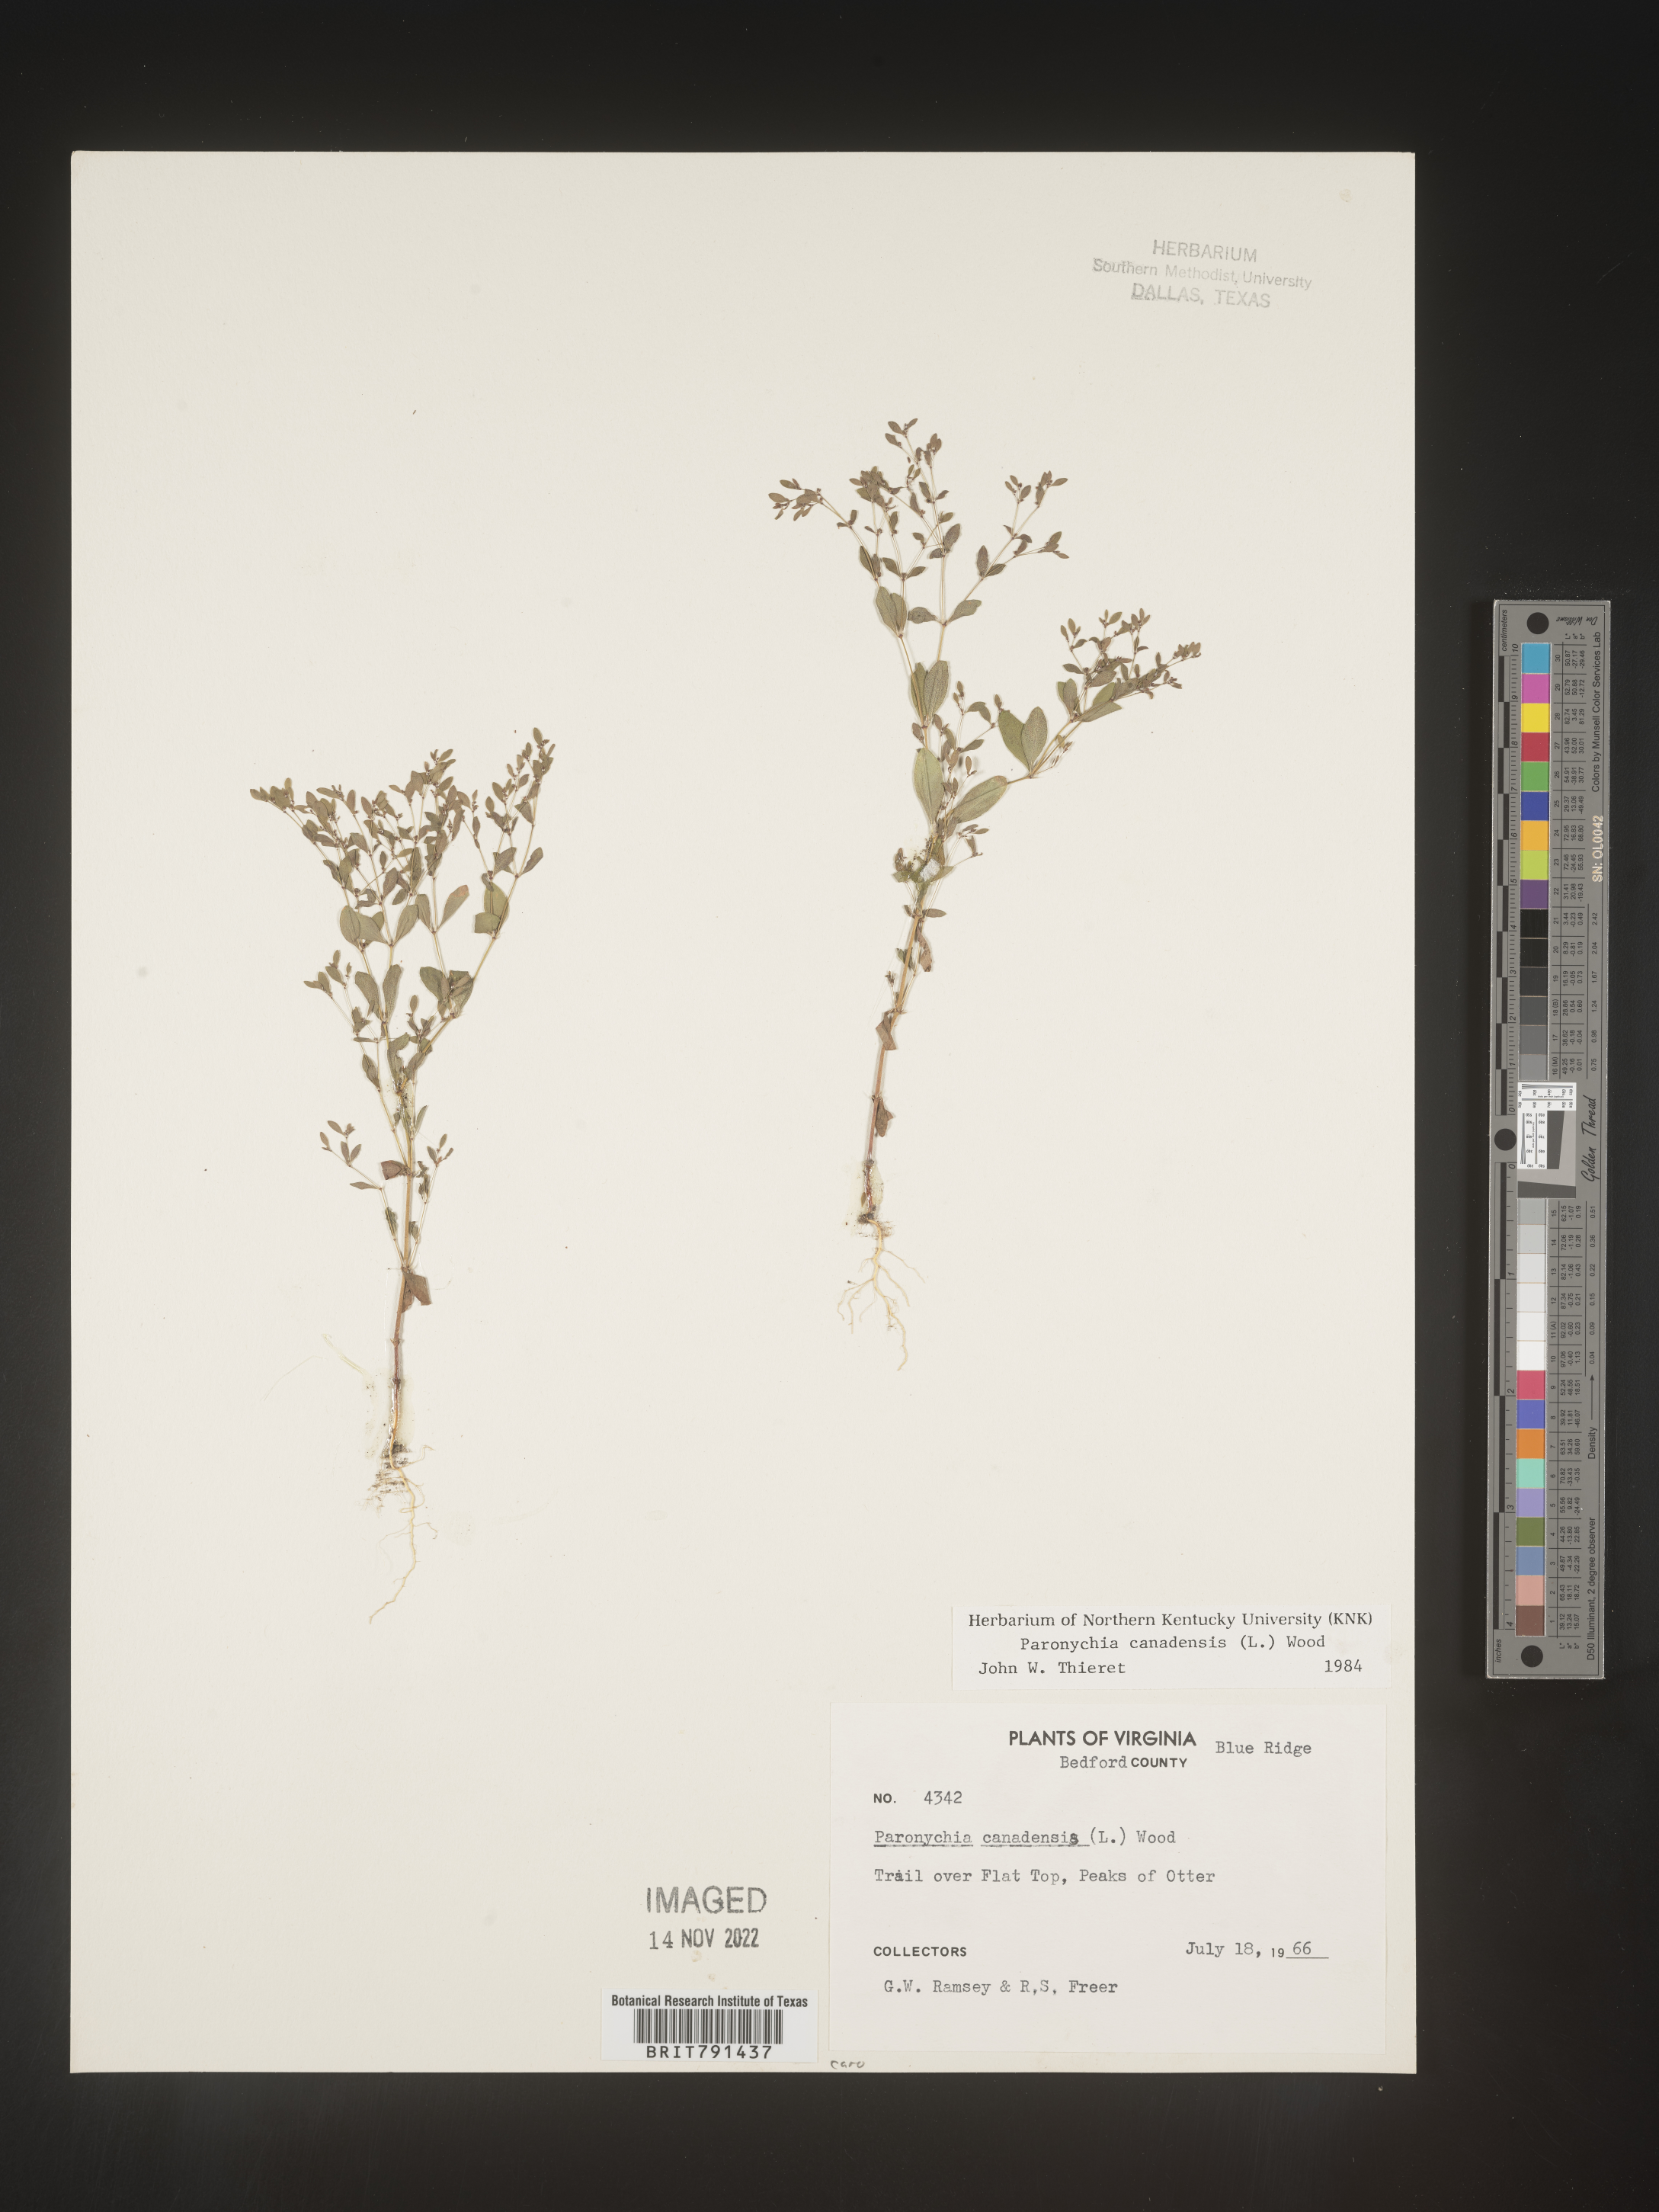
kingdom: Plantae
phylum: Tracheophyta
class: Magnoliopsida
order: Caryophyllales
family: Caryophyllaceae
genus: Paronychia
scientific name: Paronychia canadensis
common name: Canada forked nailwort
